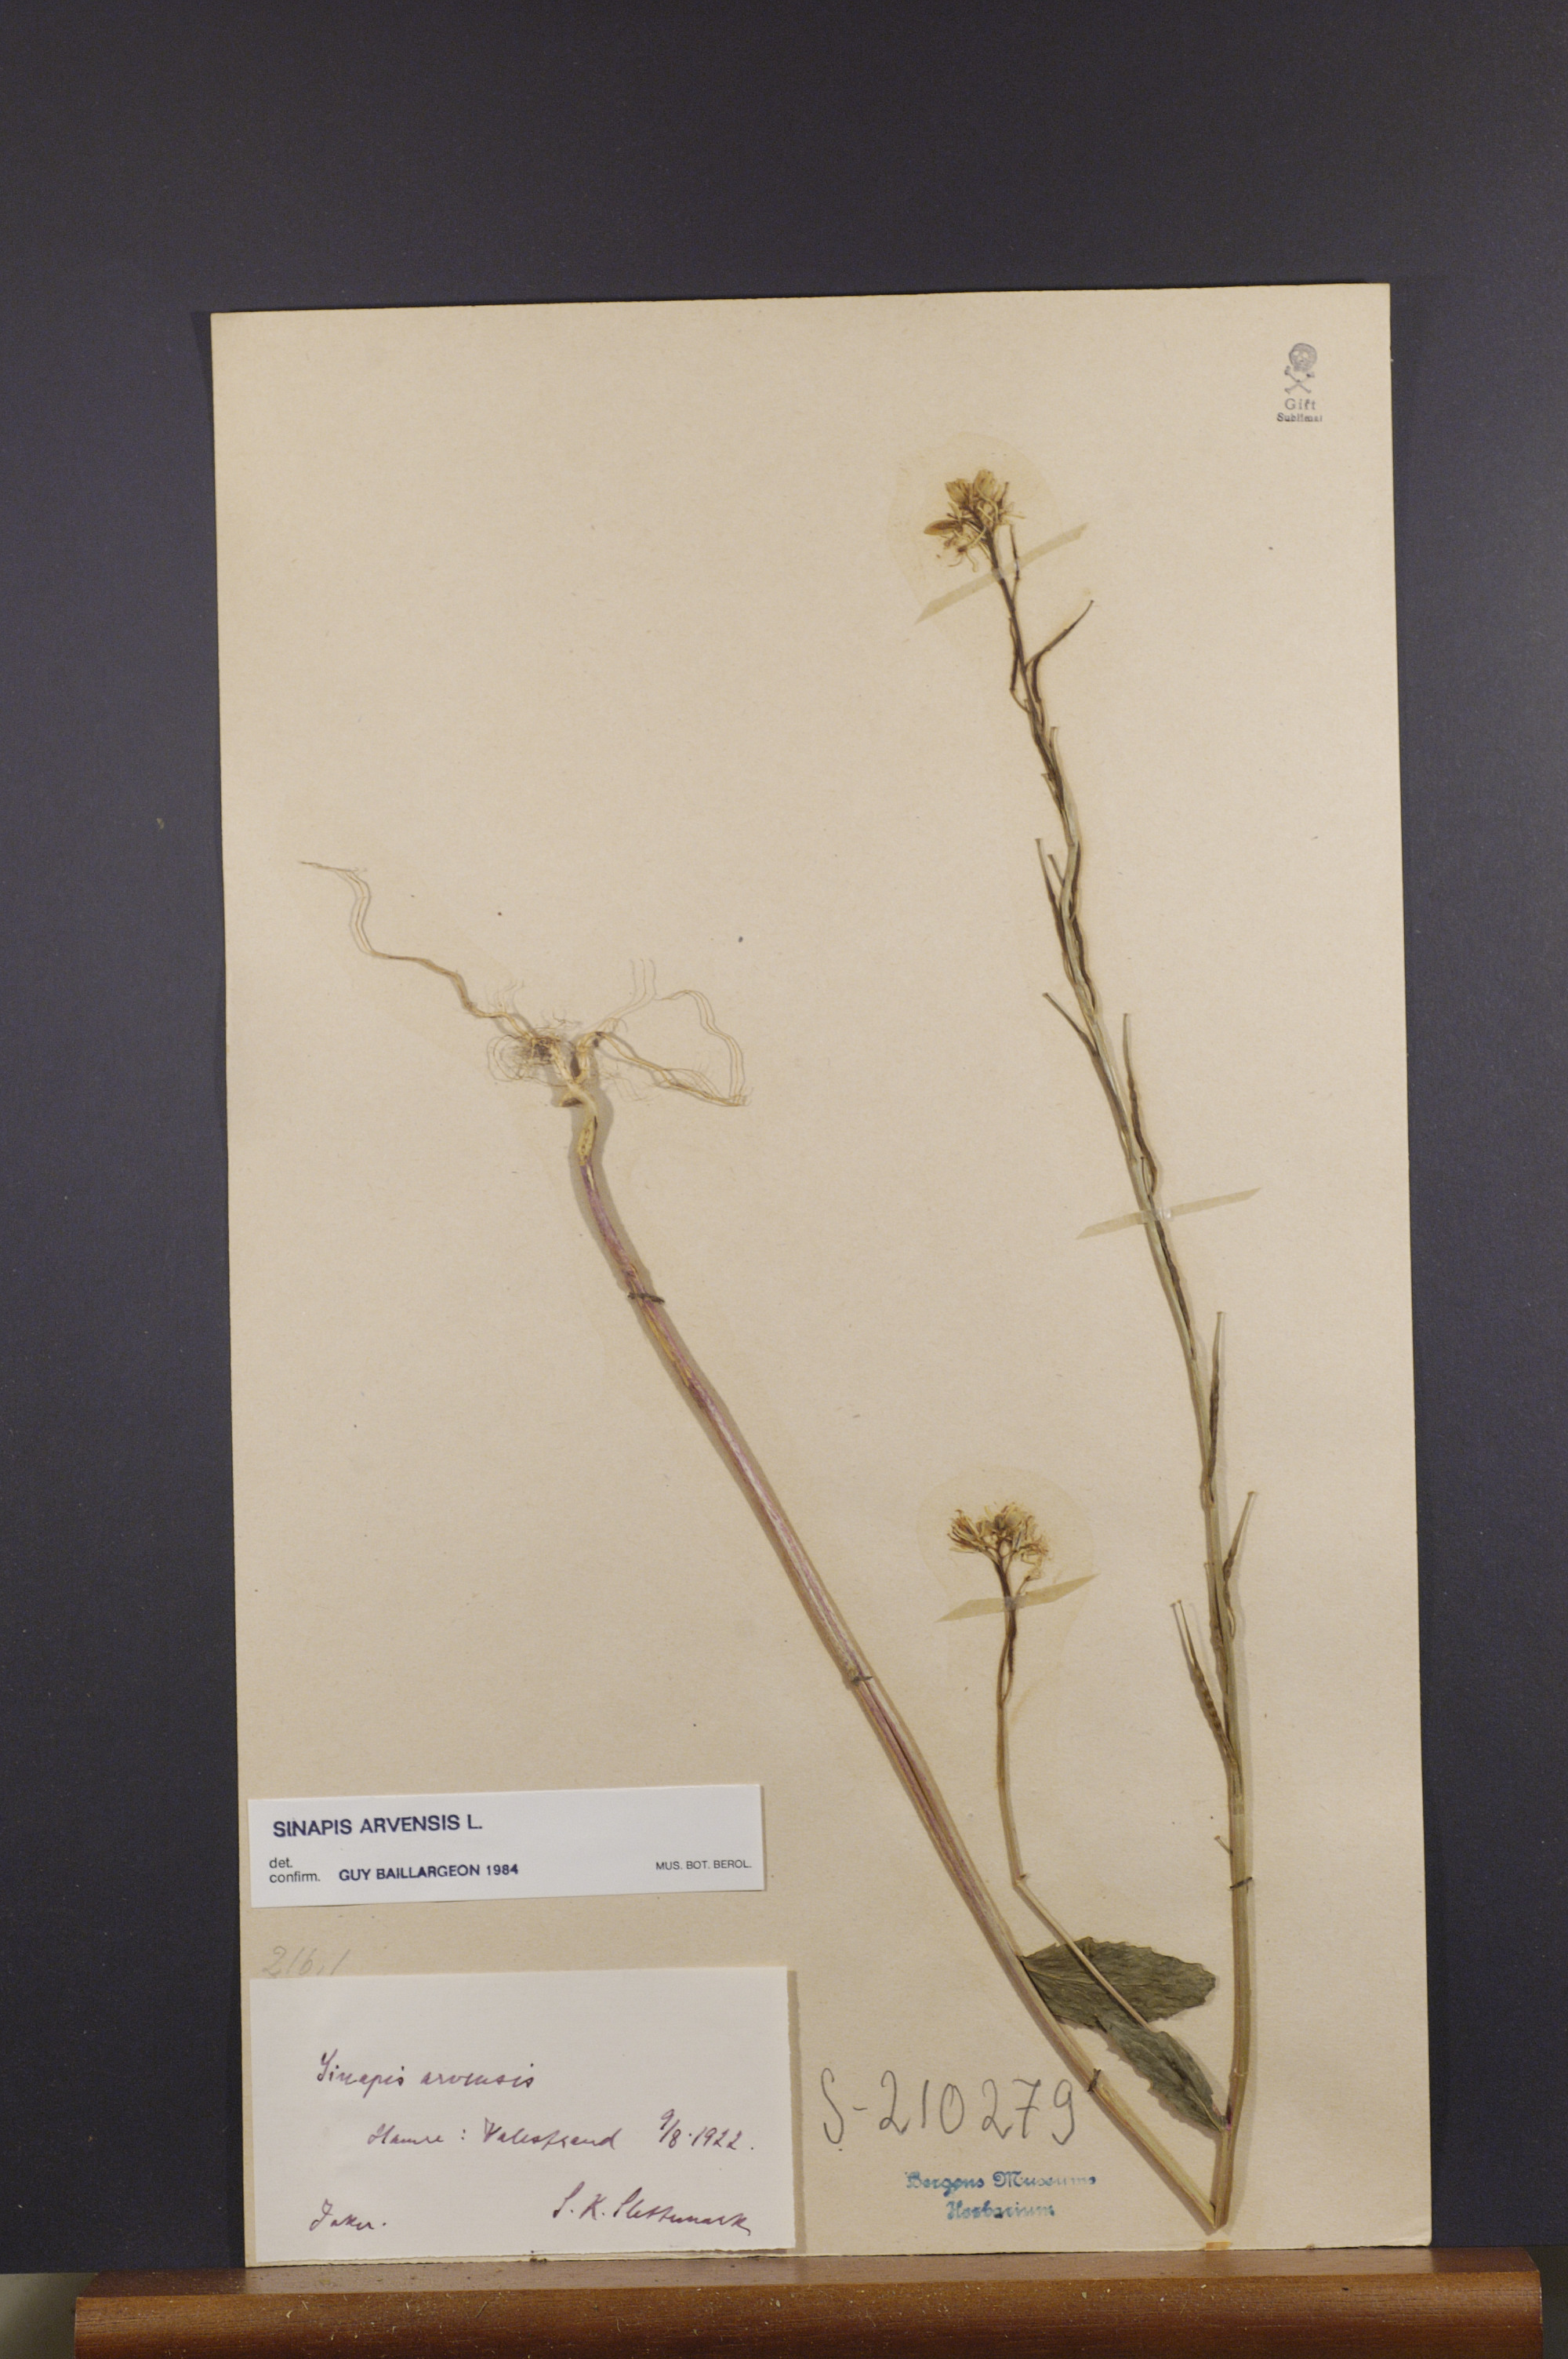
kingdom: Plantae
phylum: Tracheophyta
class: Magnoliopsida
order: Brassicales
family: Brassicaceae
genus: Sinapis
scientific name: Sinapis arvensis
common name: Charlock
